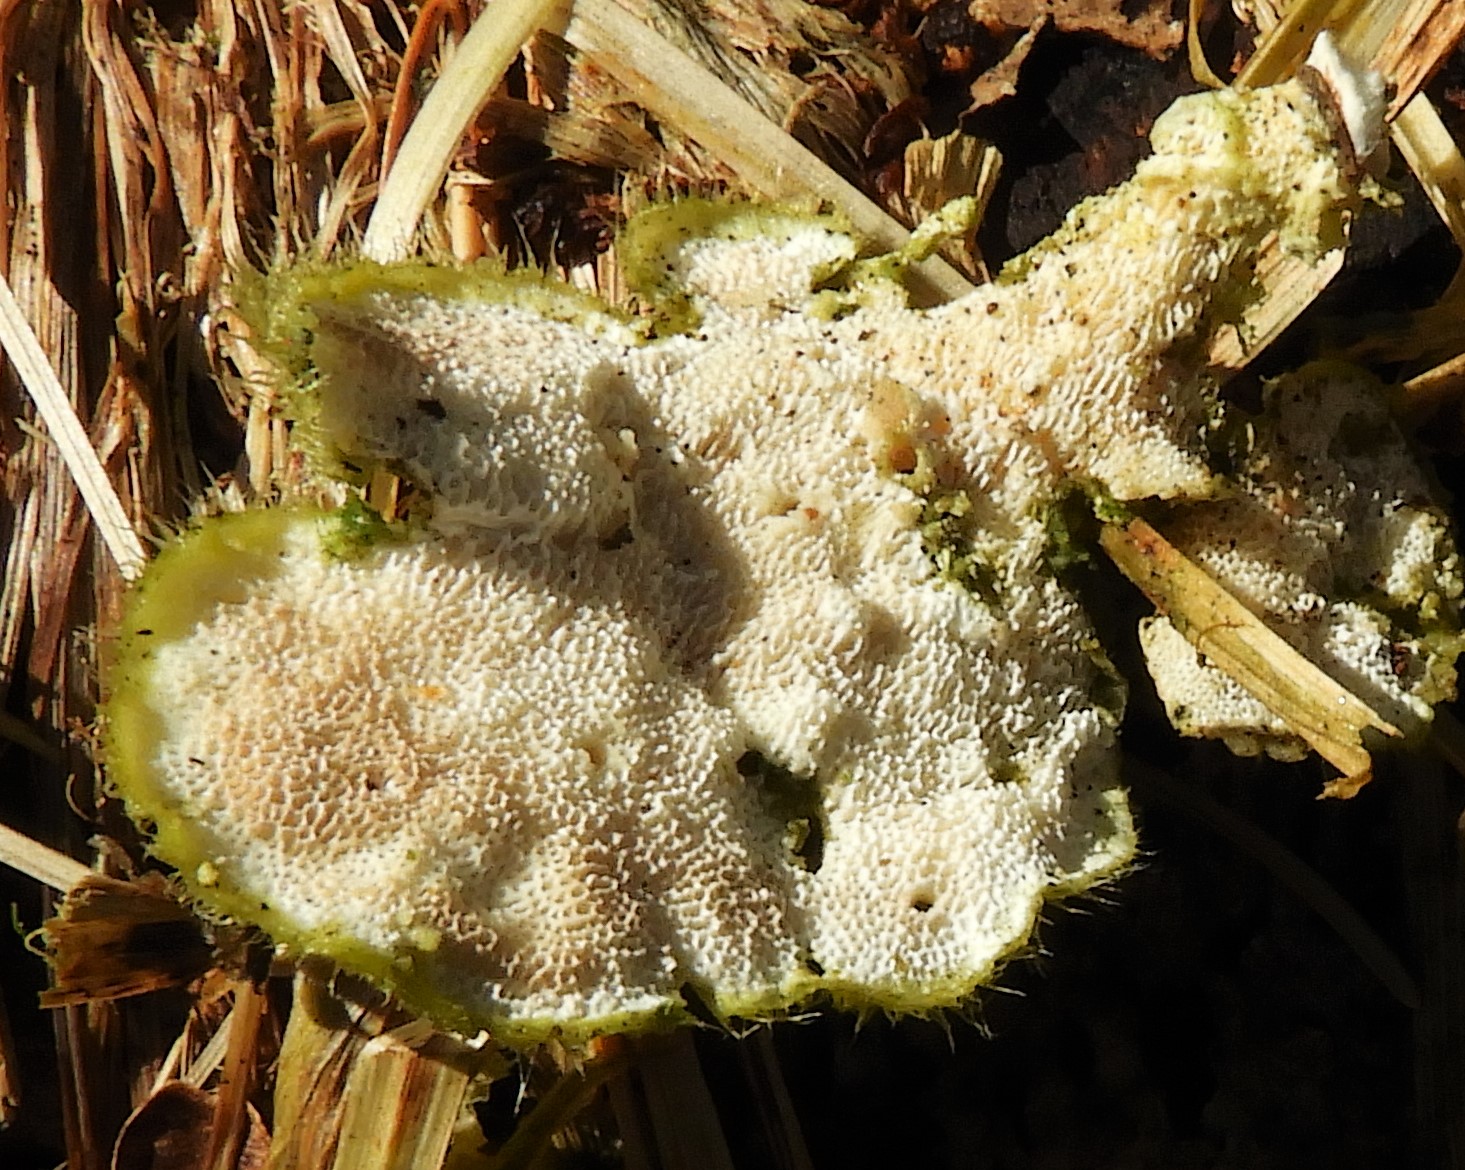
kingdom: Fungi
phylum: Basidiomycota
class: Agaricomycetes
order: Polyporales
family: Polyporaceae
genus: Trametes
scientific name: Trametes hirsuta
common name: håret læderporesvamp
